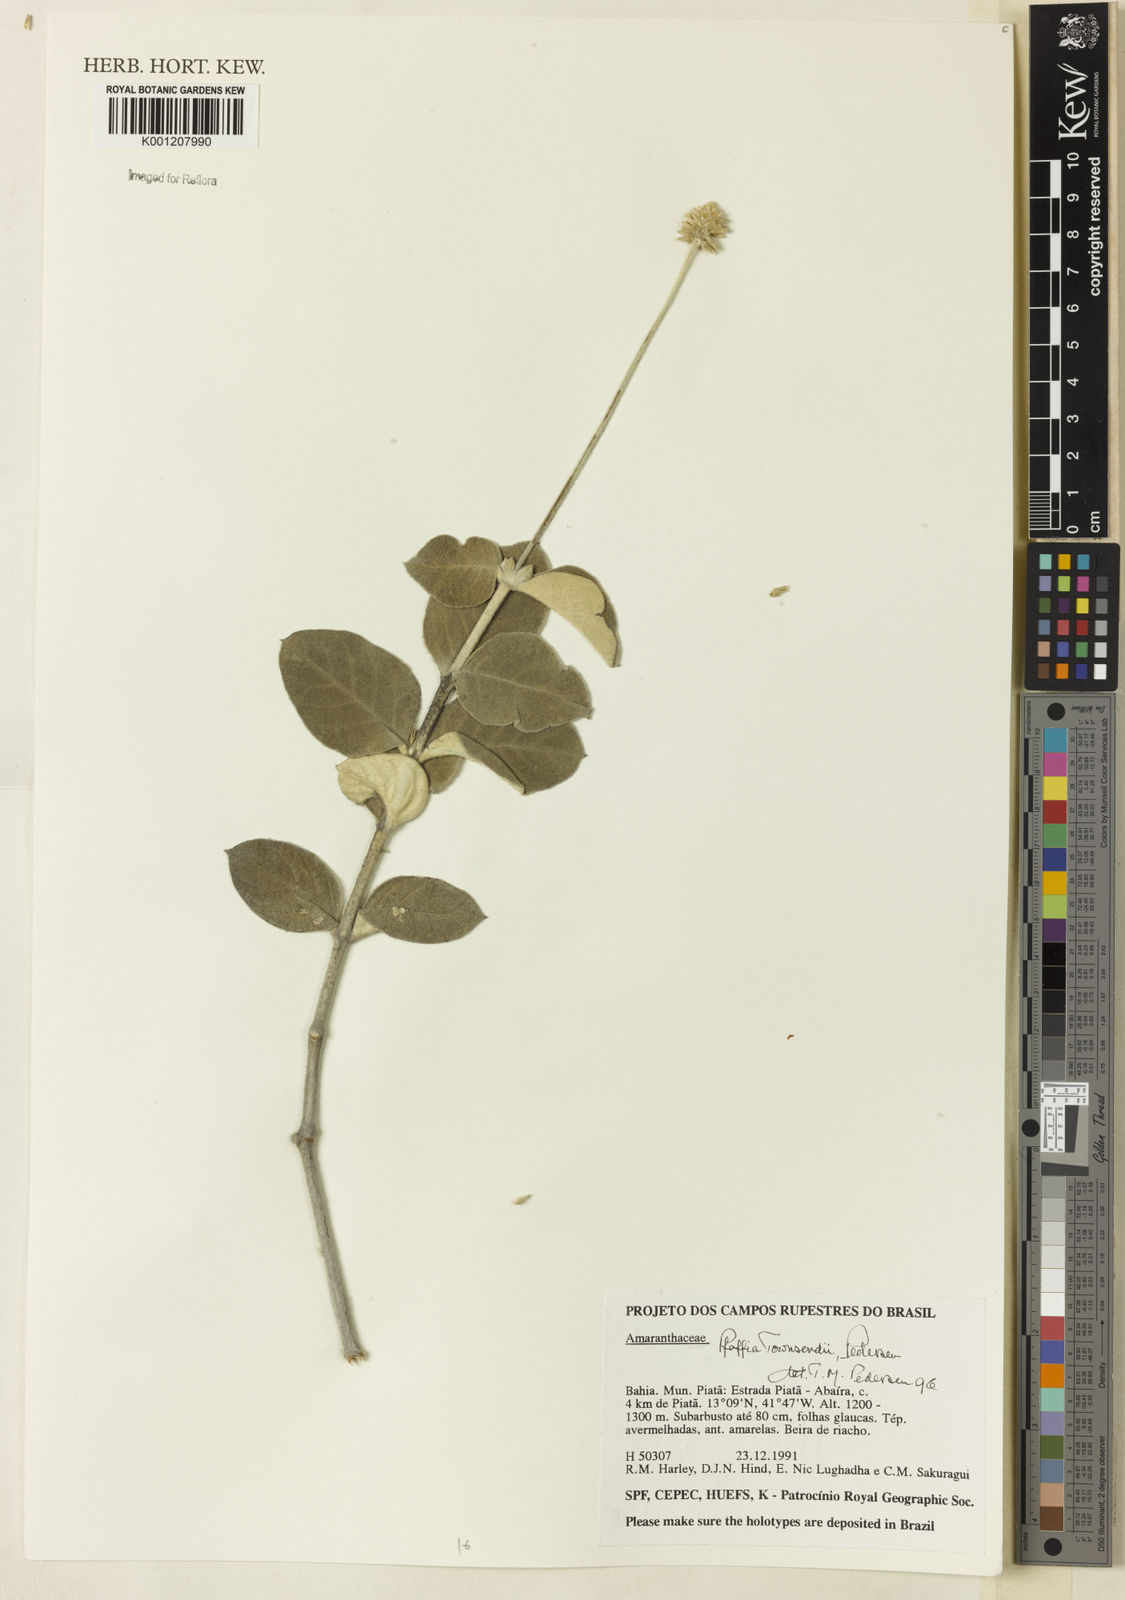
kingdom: Plantae
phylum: Tracheophyta
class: Magnoliopsida
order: Caryophyllales
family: Amaranthaceae
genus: Pfaffia
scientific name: Pfaffia townsendii
